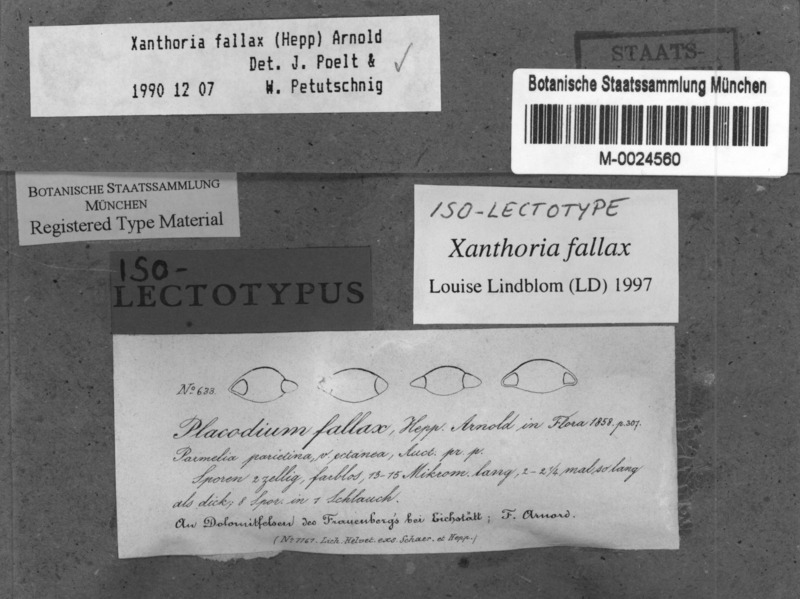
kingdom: Fungi
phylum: Ascomycota
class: Lecanoromycetes
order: Teloschistales
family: Teloschistaceae
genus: Oxneria
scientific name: Oxneria fallax
